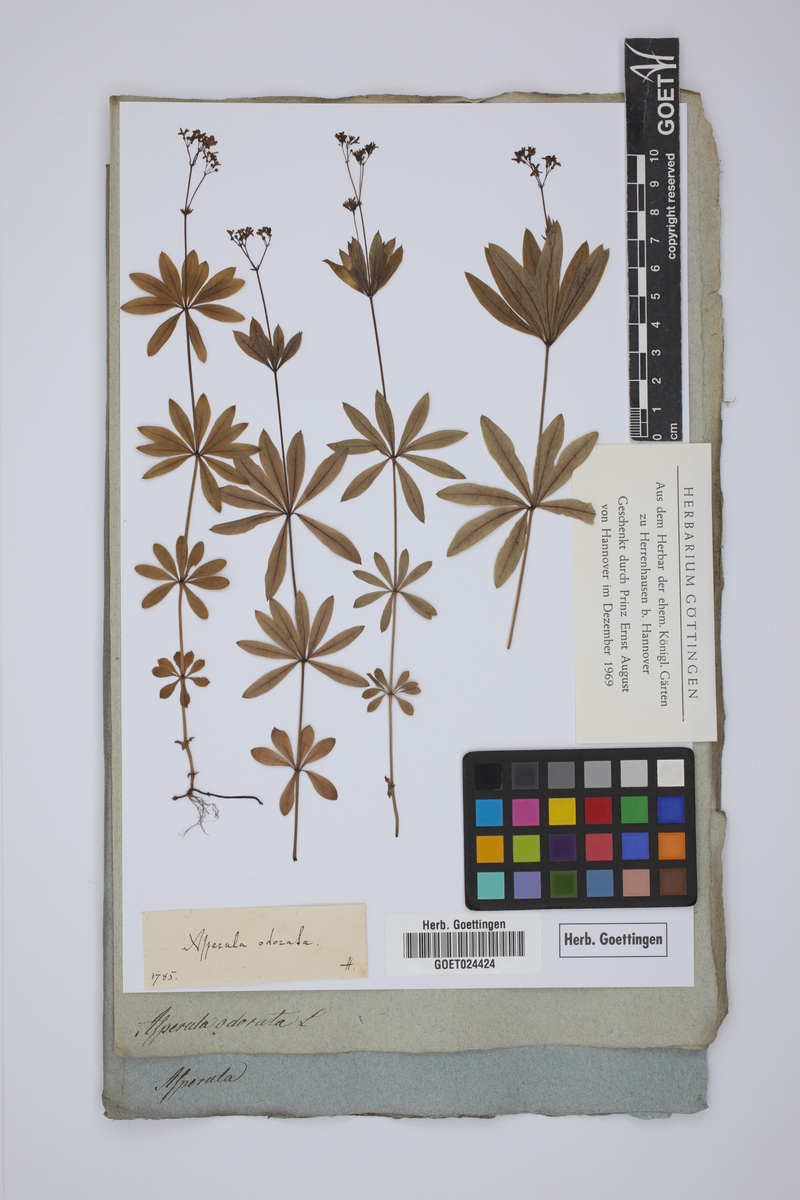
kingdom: Plantae
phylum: Tracheophyta
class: Magnoliopsida
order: Gentianales
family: Rubiaceae
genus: Galium
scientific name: Galium odoratum
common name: Sweet woodruff
